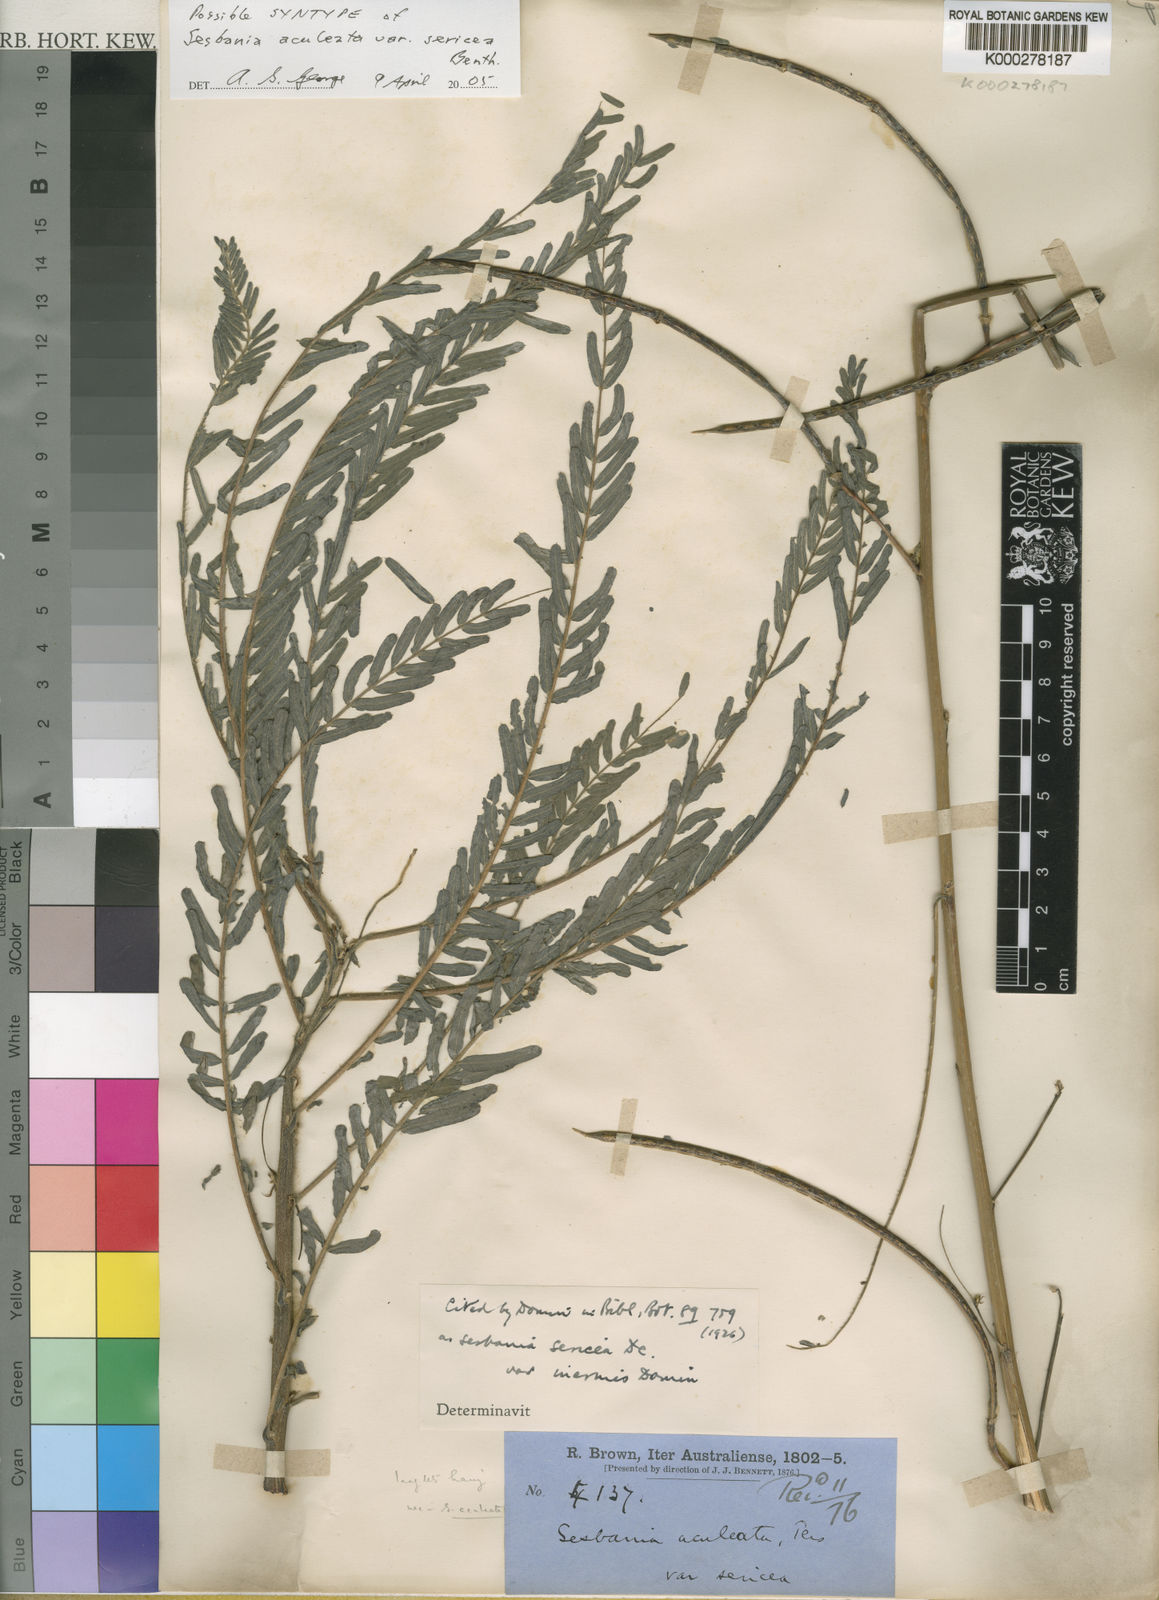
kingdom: Plantae
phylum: Tracheophyta
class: Magnoliopsida
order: Fabales
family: Fabaceae
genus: Sesbania
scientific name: Sesbania cannabina
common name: Canicha
